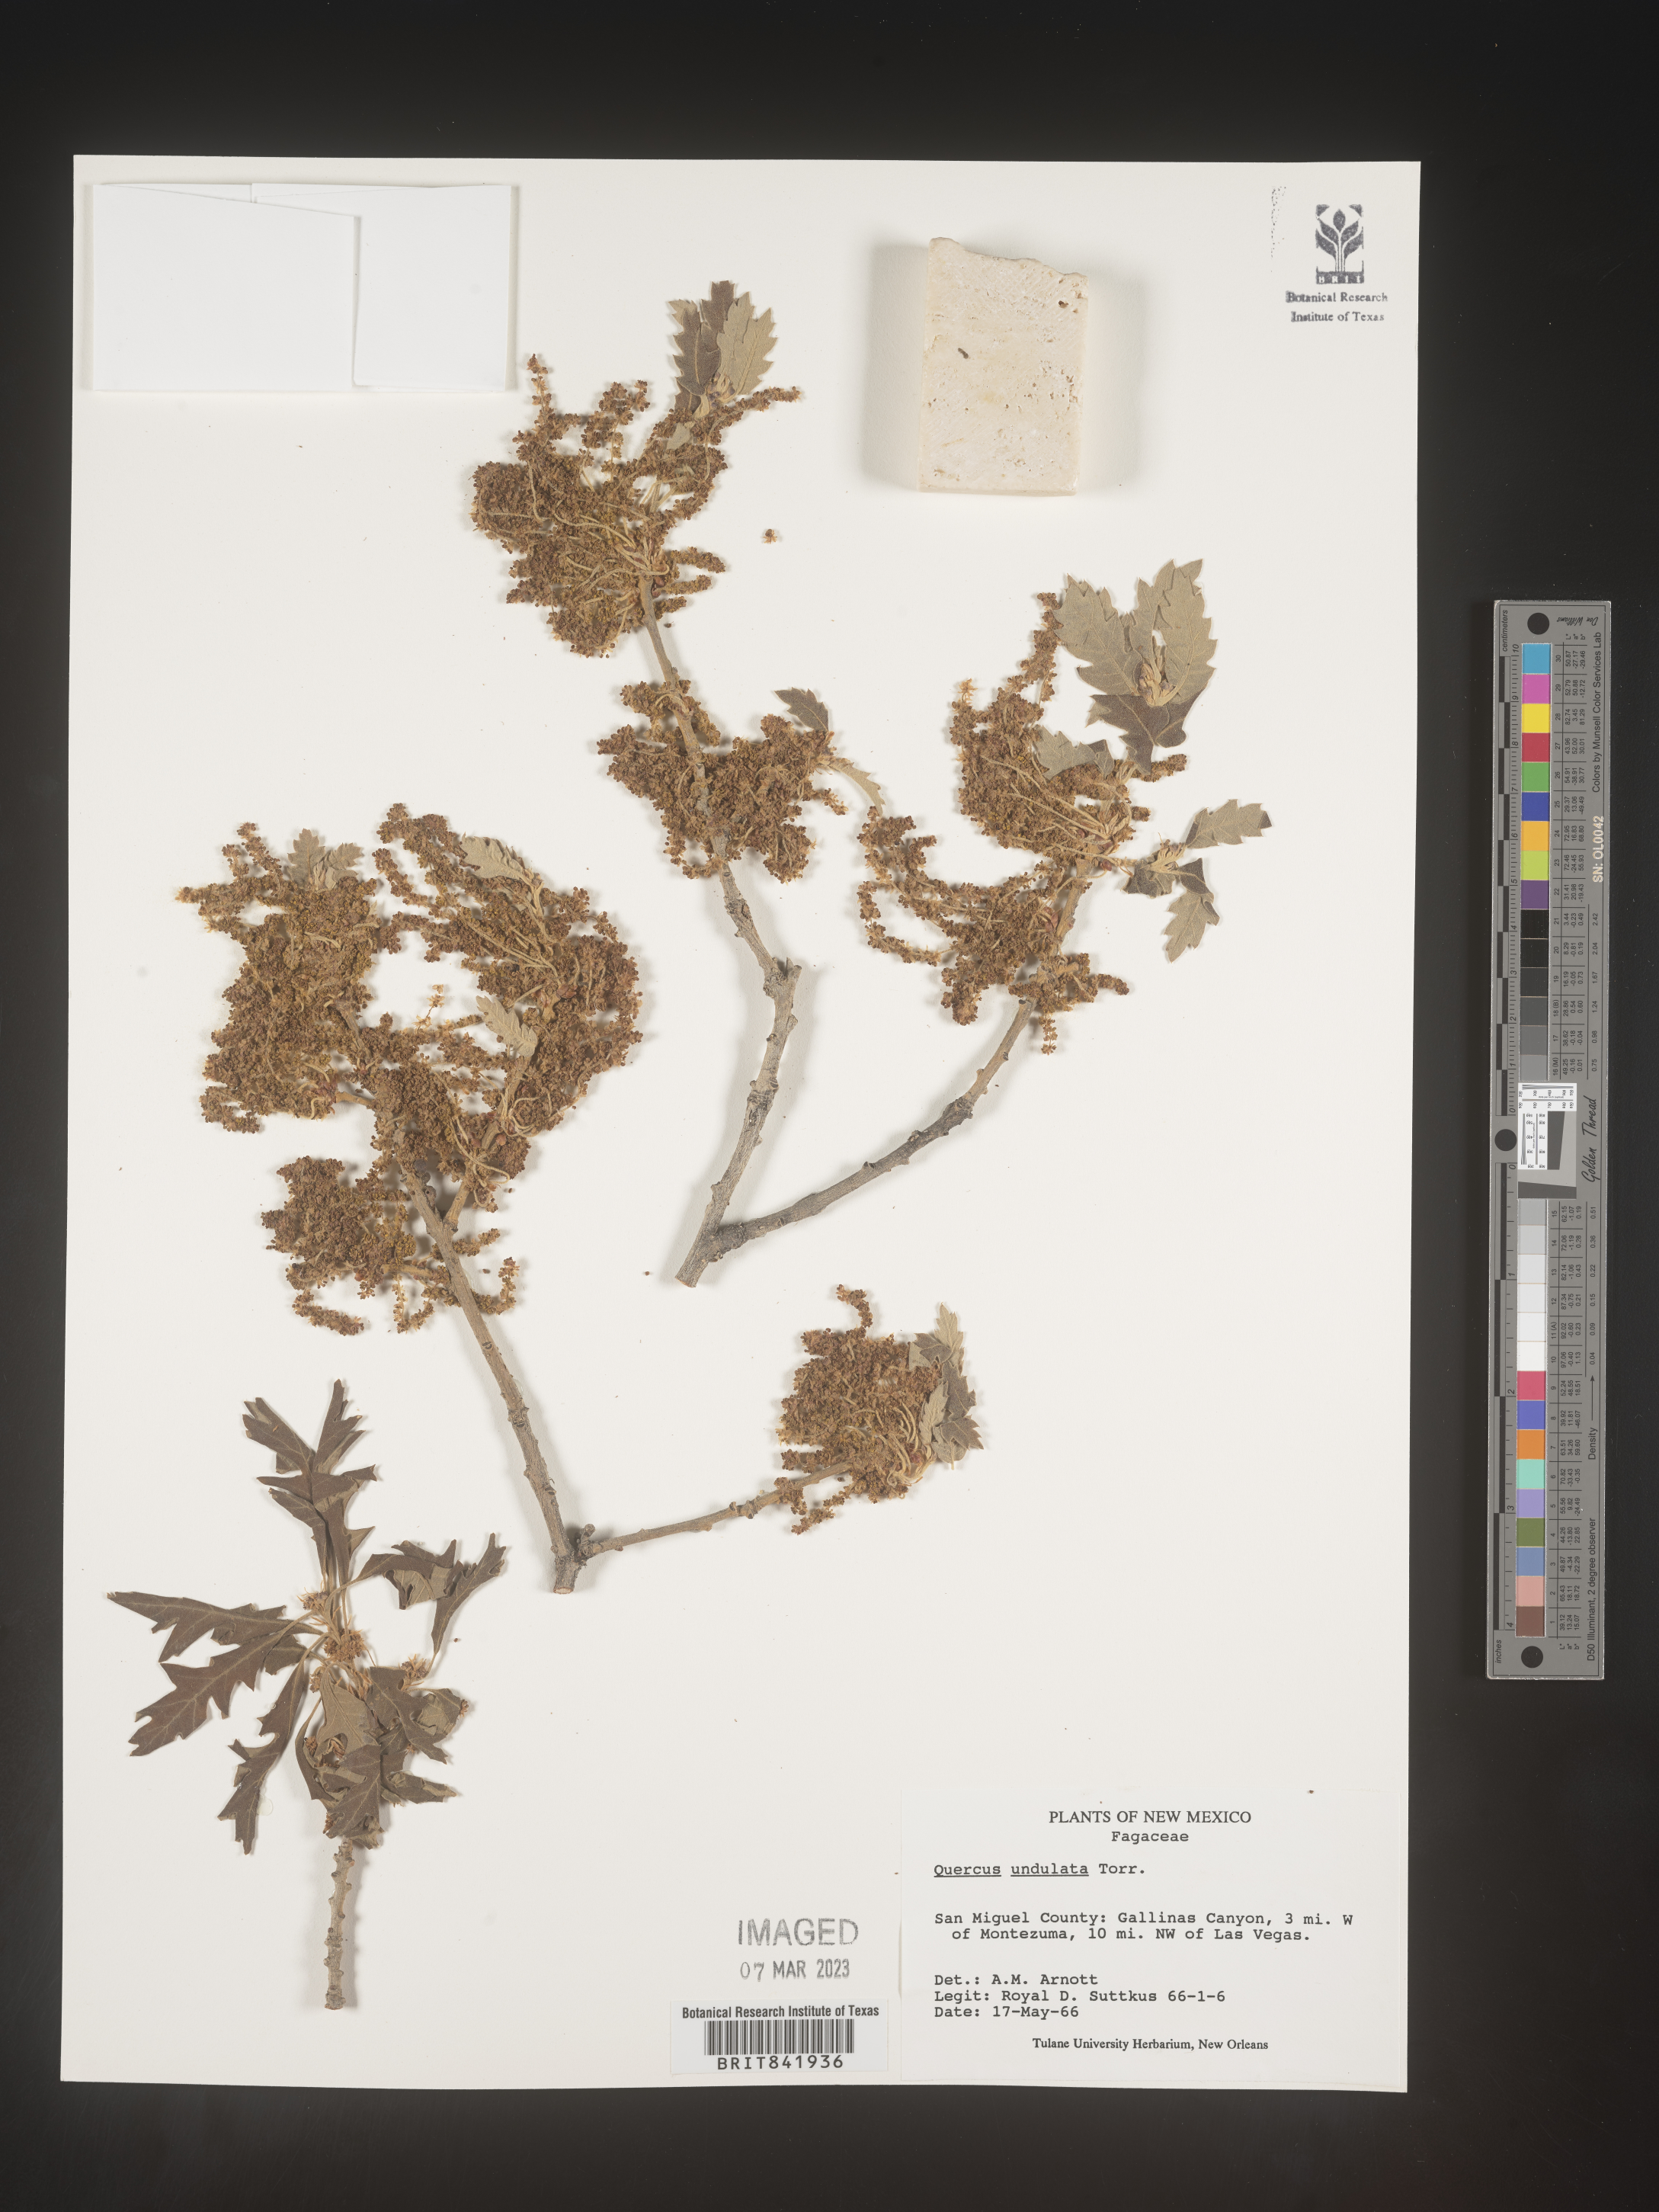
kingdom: Plantae
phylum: Tracheophyta
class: Magnoliopsida
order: Fagales
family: Fagaceae
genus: Quercus
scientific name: Quercus undulata
